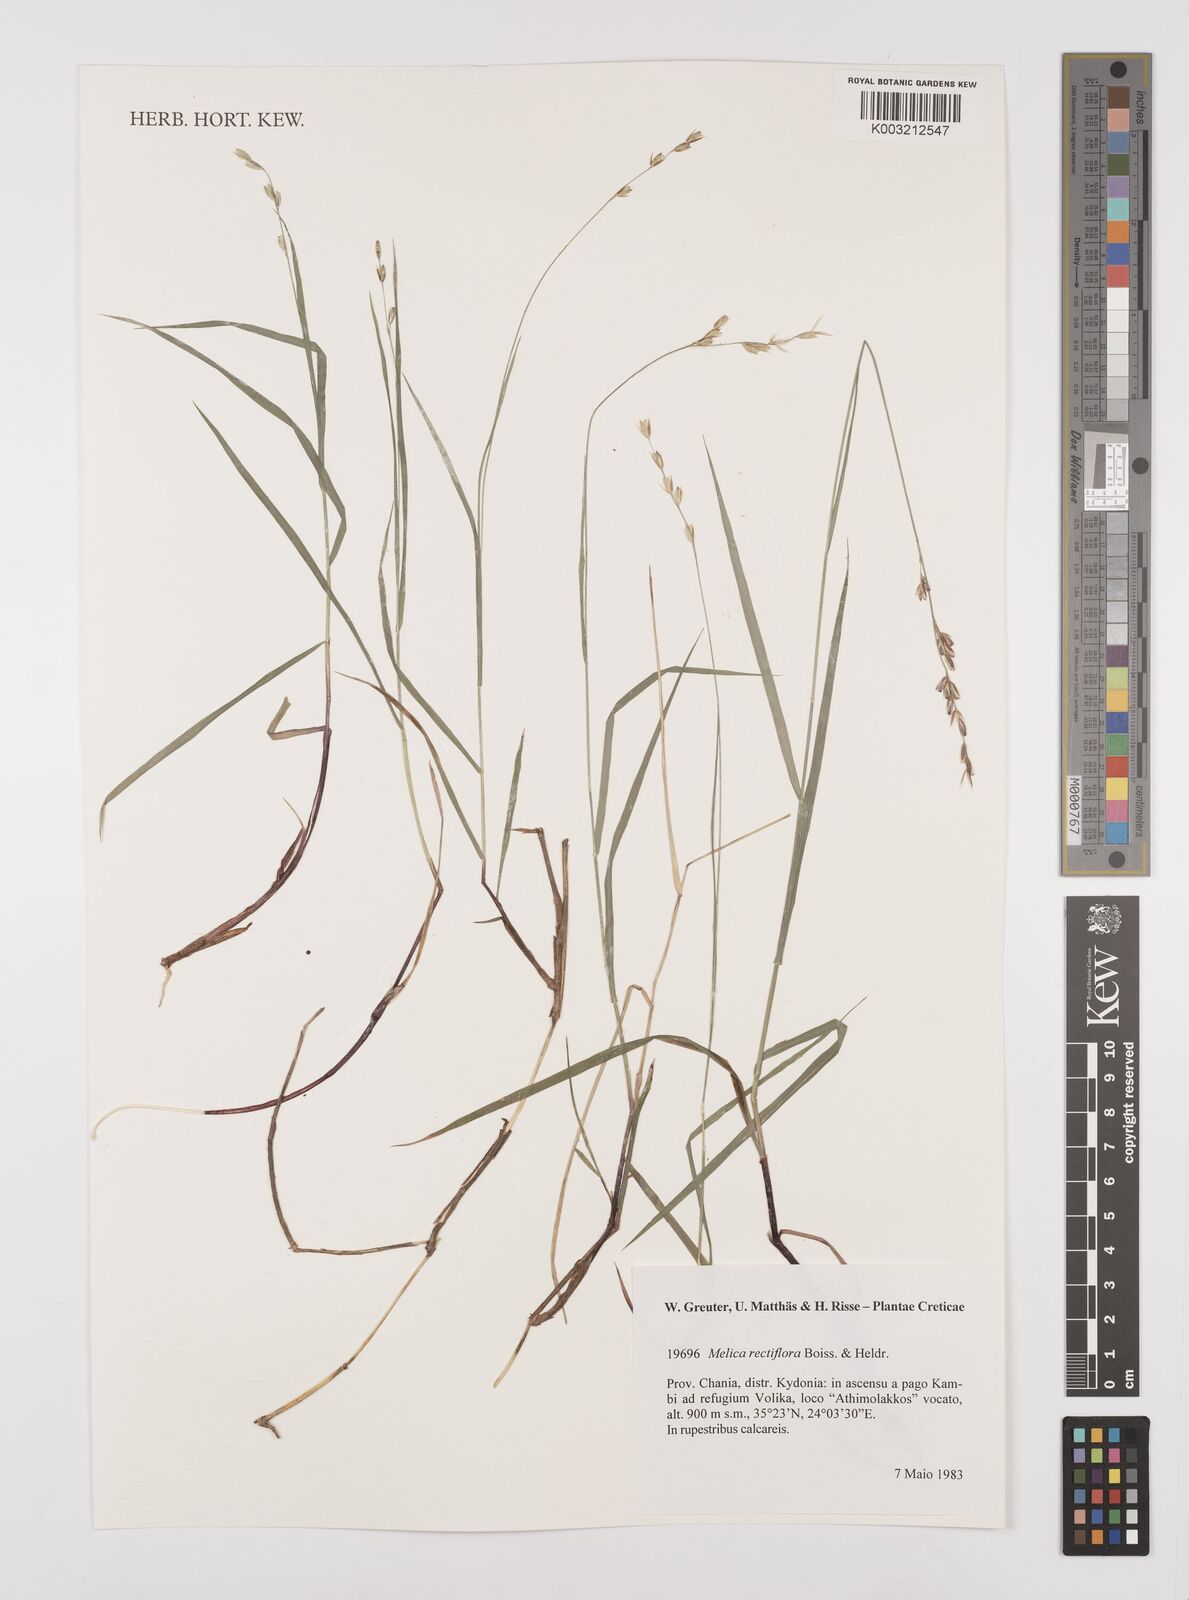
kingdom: Plantae
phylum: Tracheophyta
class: Liliopsida
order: Poales
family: Poaceae
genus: Melica
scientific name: Melica rectiflora
